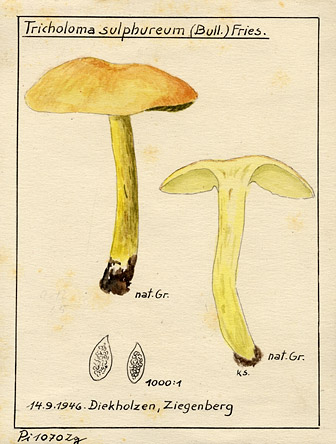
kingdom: Fungi
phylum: Basidiomycota
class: Agaricomycetes
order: Agaricales
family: Tricholomataceae
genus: Tricholoma
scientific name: Tricholoma sulphureum
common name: Stinky knight
